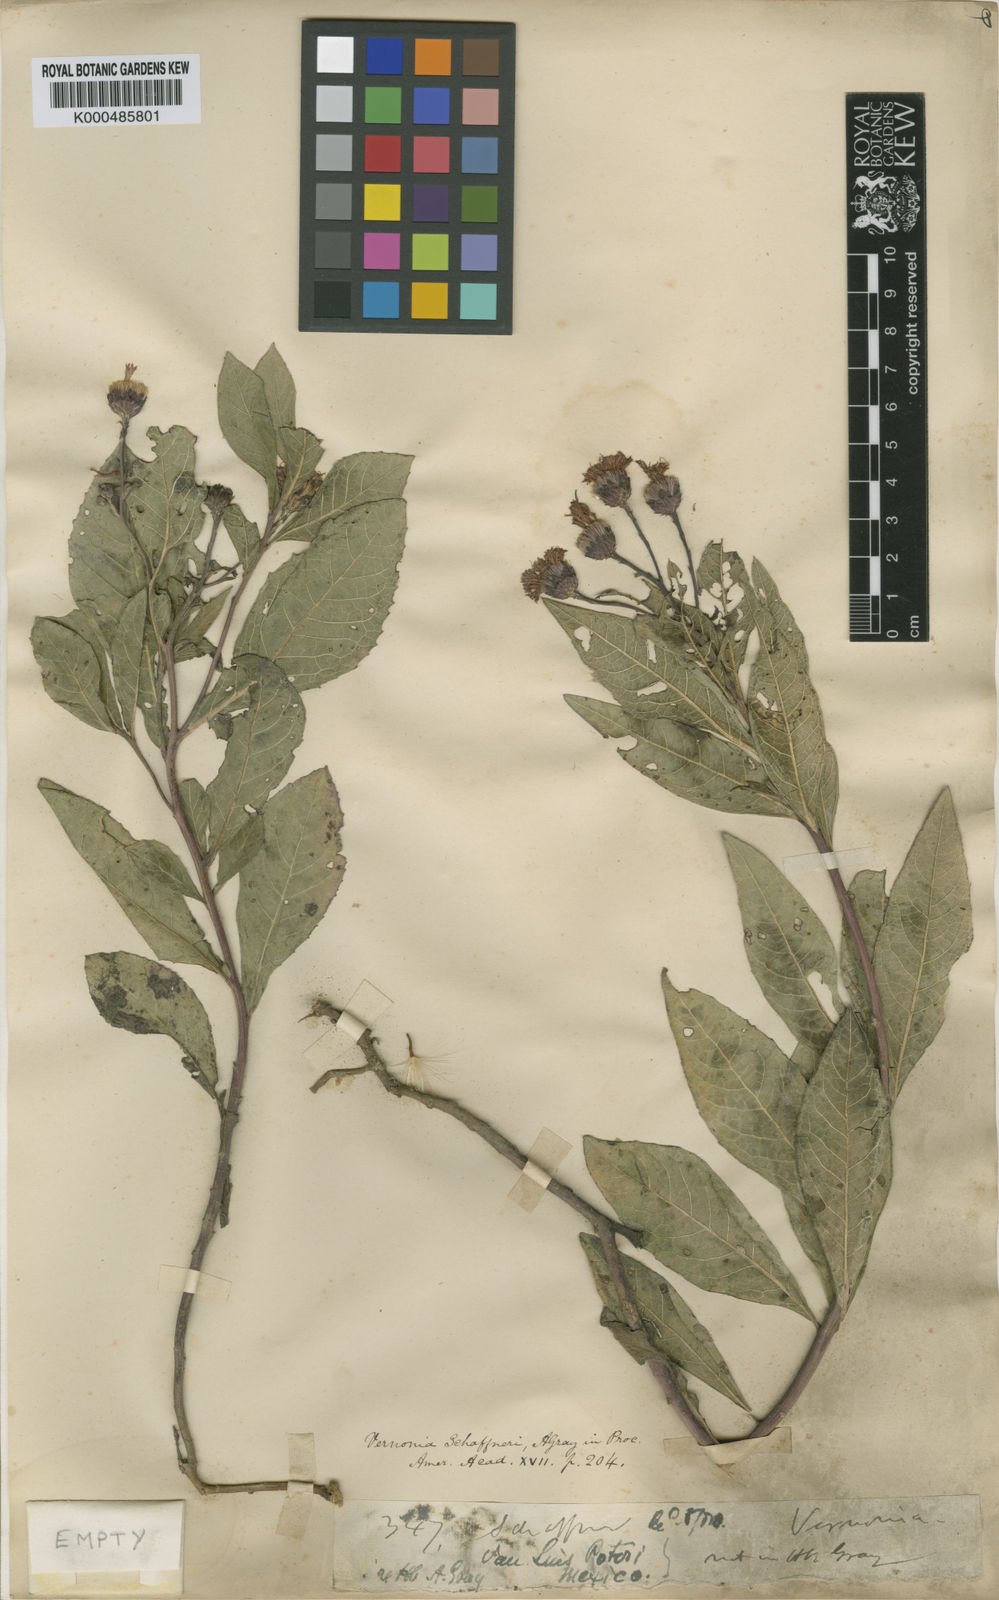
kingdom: Plantae
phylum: Tracheophyta
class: Magnoliopsida
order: Asterales
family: Asteraceae
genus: Vernonia
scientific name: Vernonia greggii
